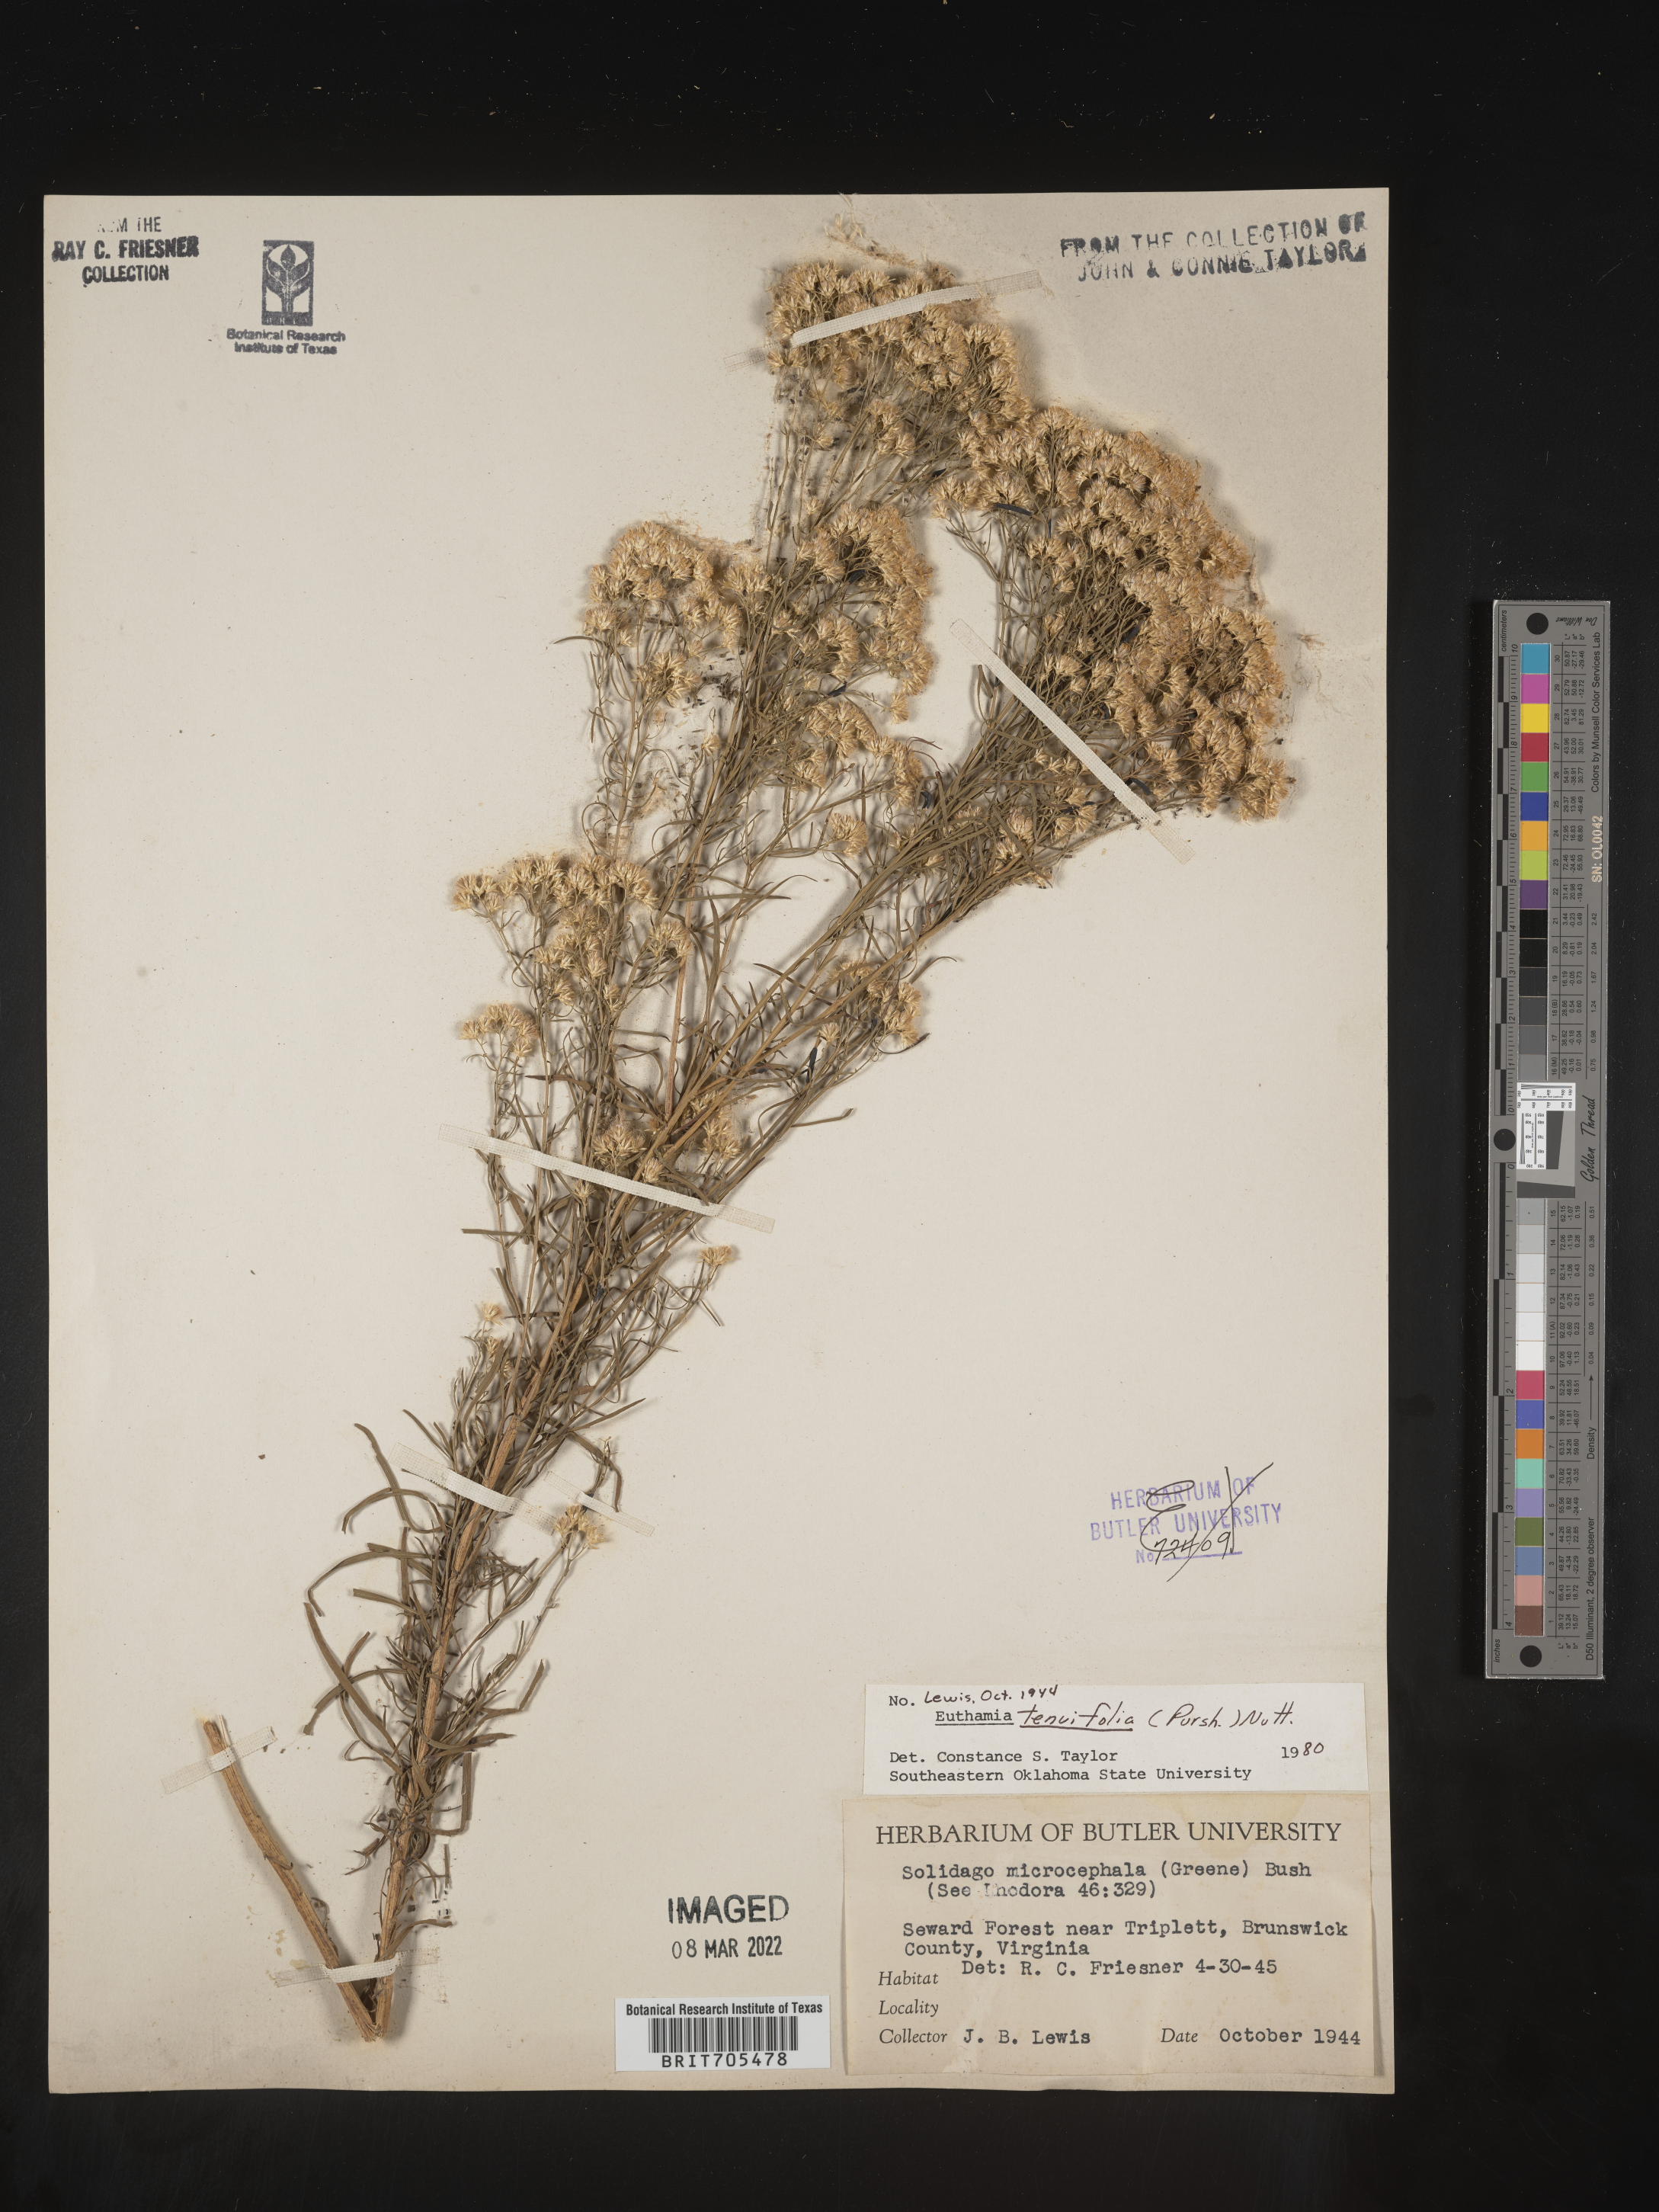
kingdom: Plantae
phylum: Tracheophyta
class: Magnoliopsida
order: Asterales
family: Asteraceae
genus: Euthamia
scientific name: Euthamia caroliniana
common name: Coastal plain goldentop
